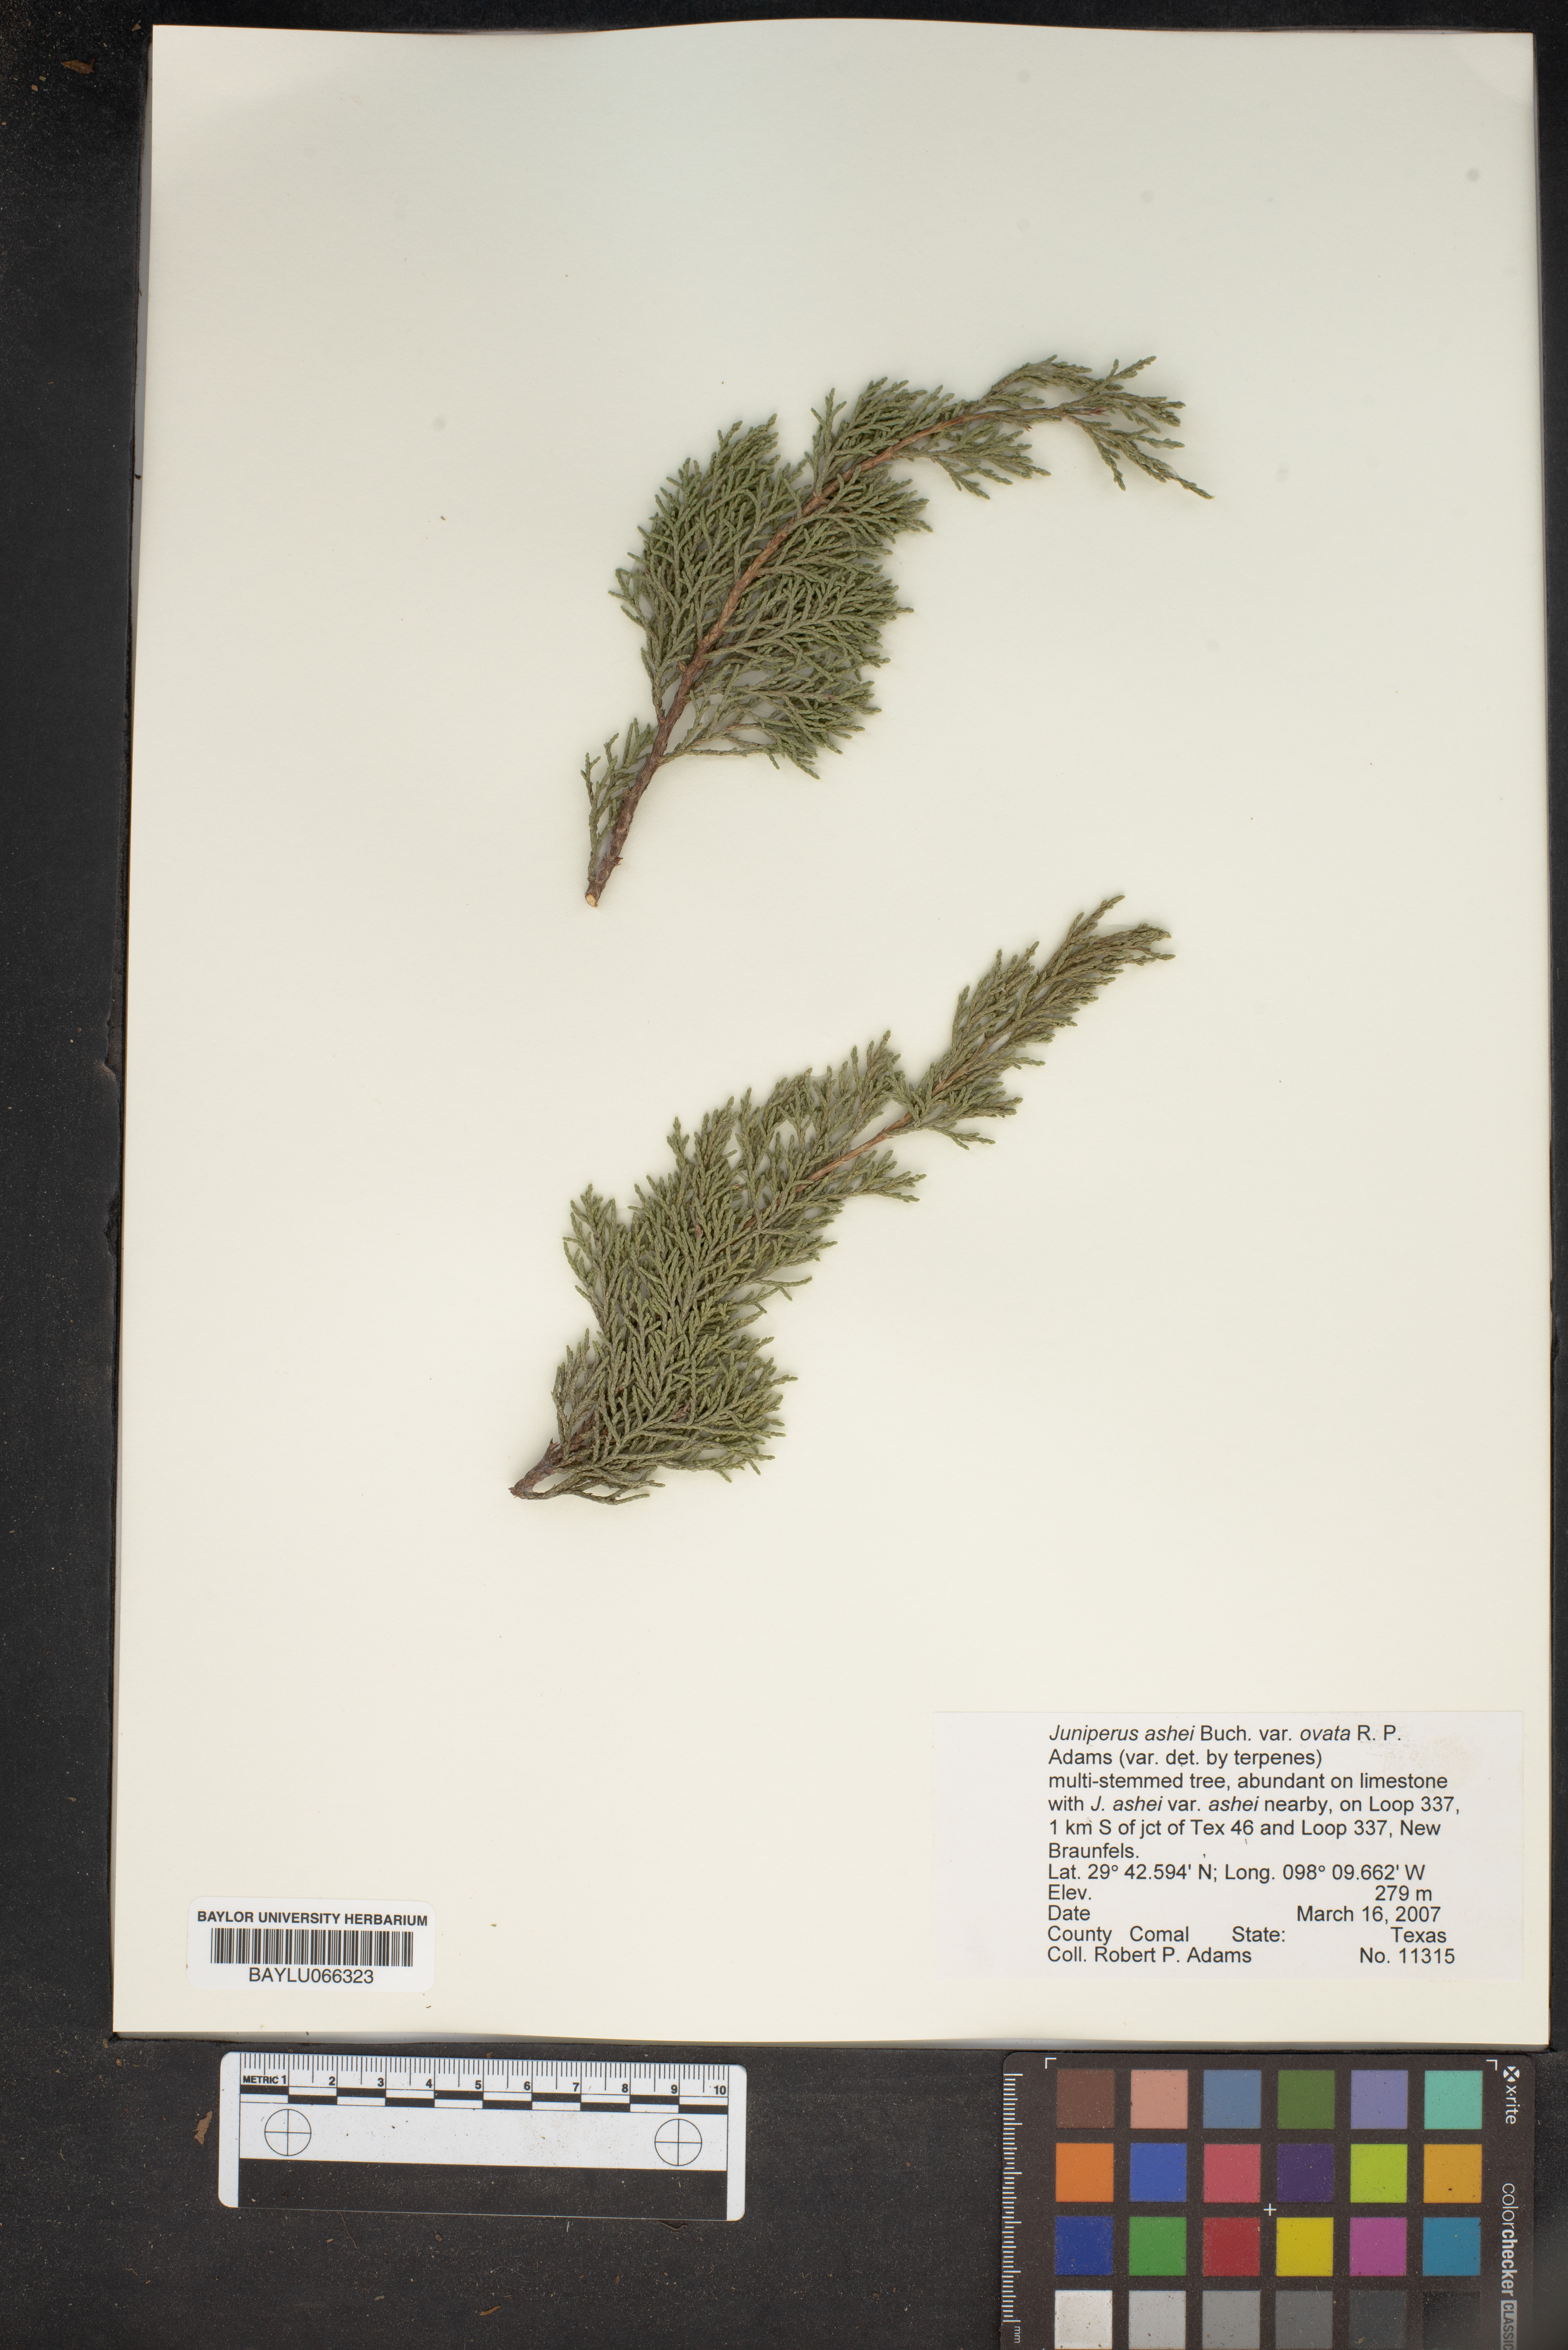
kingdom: Plantae
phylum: Tracheophyta
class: Pinopsida
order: Pinales
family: Cupressaceae
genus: Juniperus
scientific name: Juniperus ashei
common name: Mexican juniper
